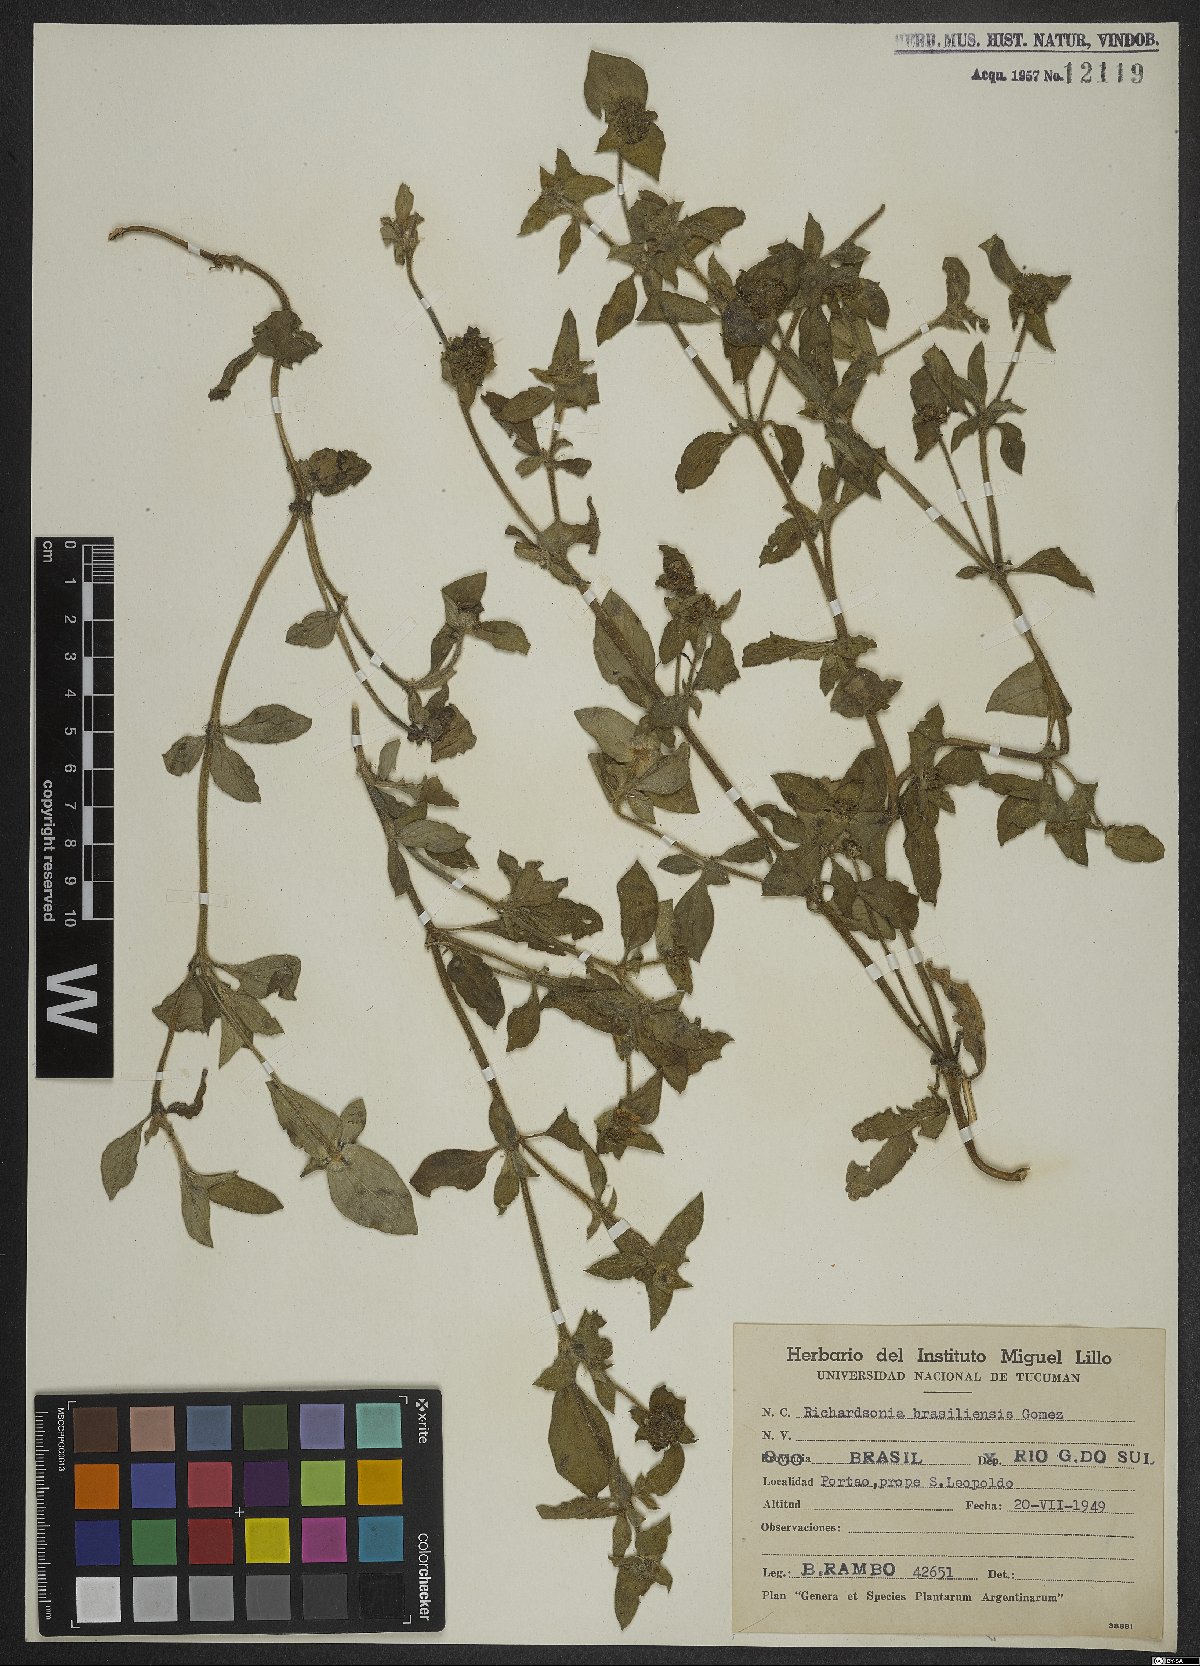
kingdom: Plantae
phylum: Tracheophyta
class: Magnoliopsida
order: Gentianales
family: Rubiaceae
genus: Richardia
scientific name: Richardia brasiliensis
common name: Tropical mexican clover
